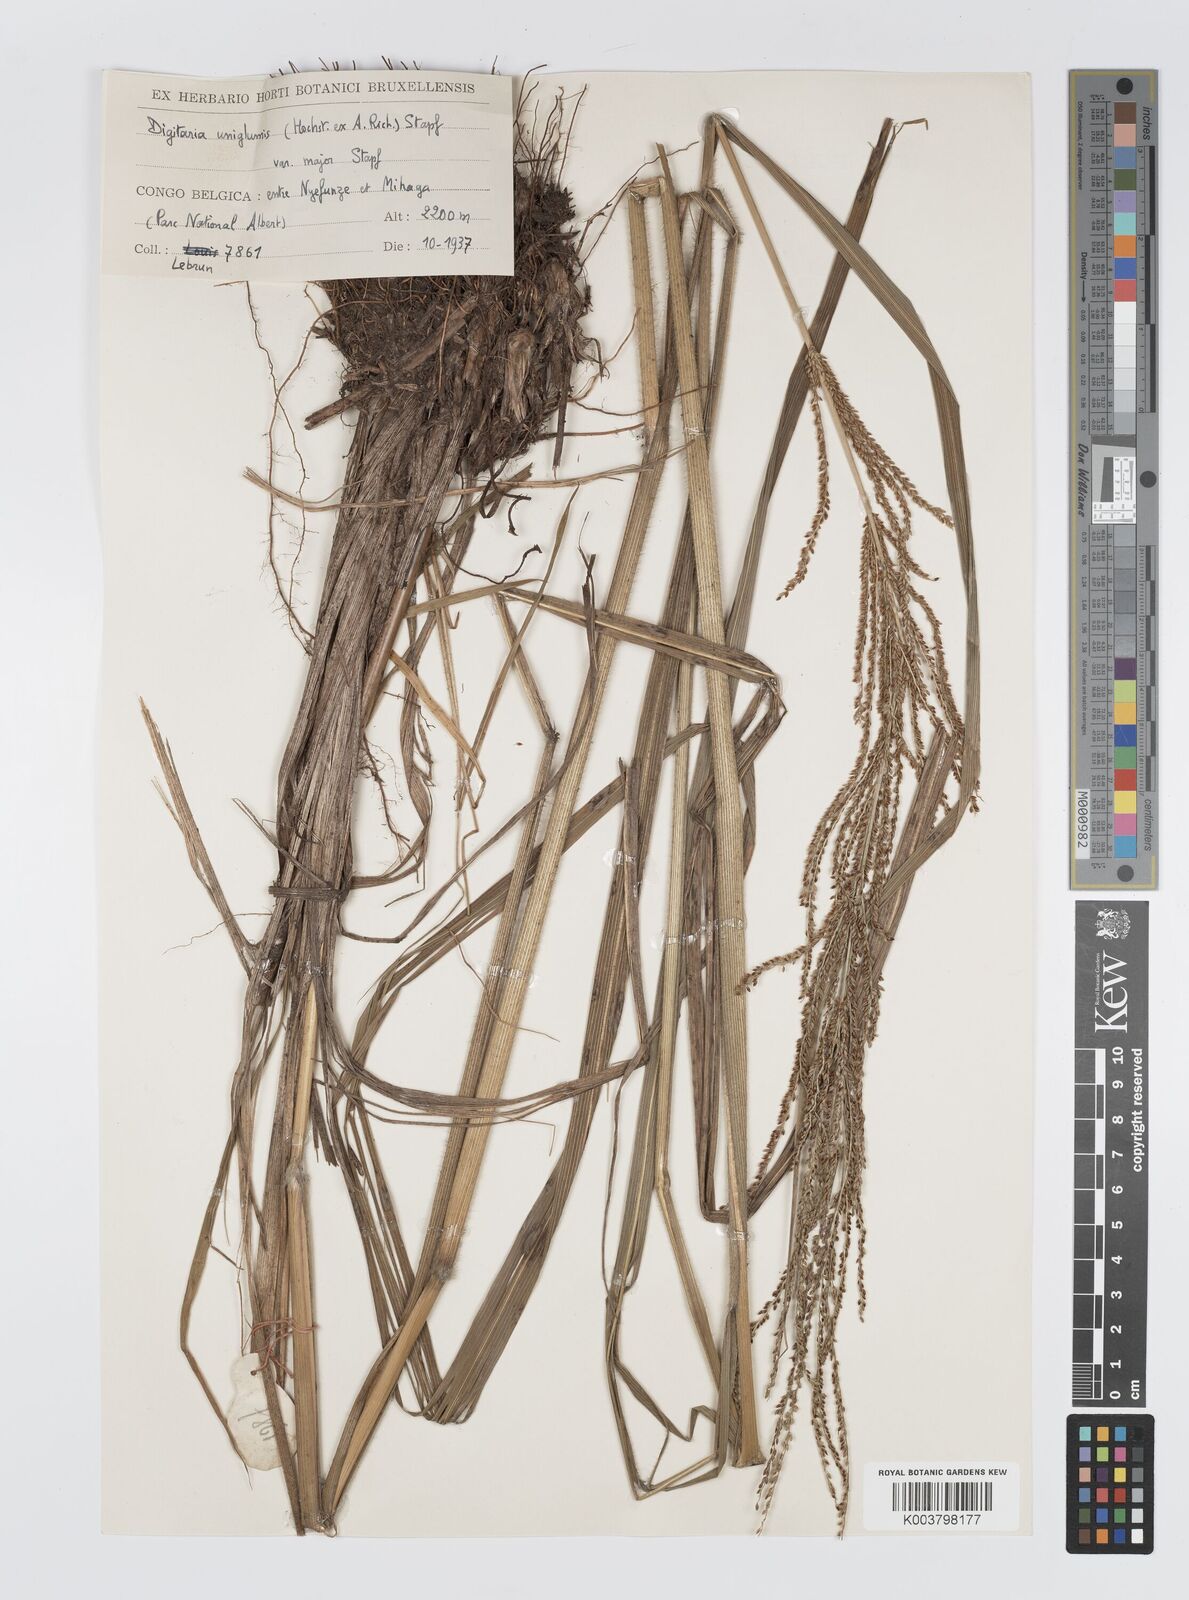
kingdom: Plantae
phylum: Tracheophyta
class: Liliopsida
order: Poales
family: Poaceae
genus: Digitaria
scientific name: Digitaria diagonalis
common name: Brown-seed finger grass
